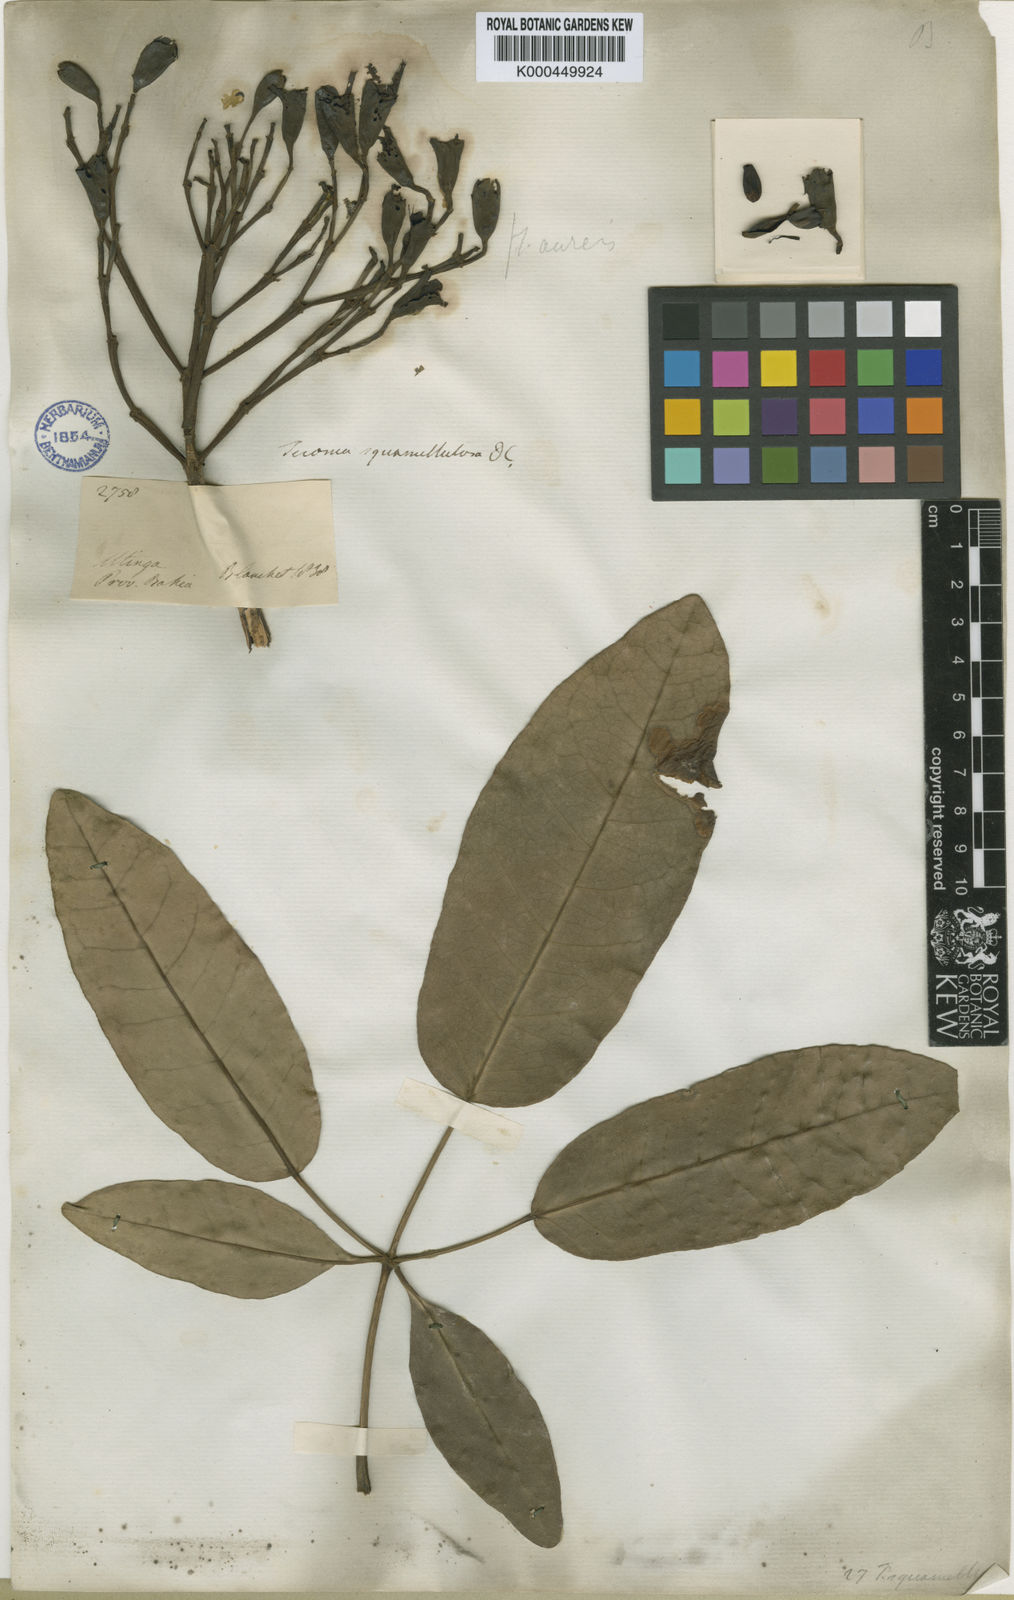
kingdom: Plantae
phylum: Tracheophyta
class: Magnoliopsida
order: Lamiales
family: Bignoniaceae
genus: Tabebuia
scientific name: Tabebuia aurea
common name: Caribbean trumpet-tree
